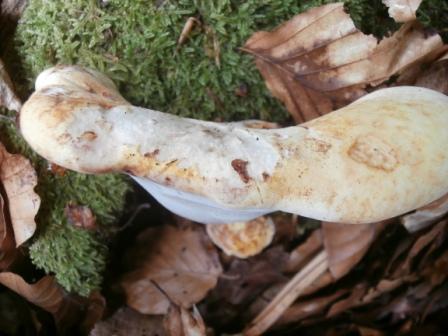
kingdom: Fungi
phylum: Basidiomycota
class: Agaricomycetes
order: Polyporales
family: Fomitopsidaceae
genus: Buglossoporus
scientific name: Buglossoporus quercinus
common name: egetunge
